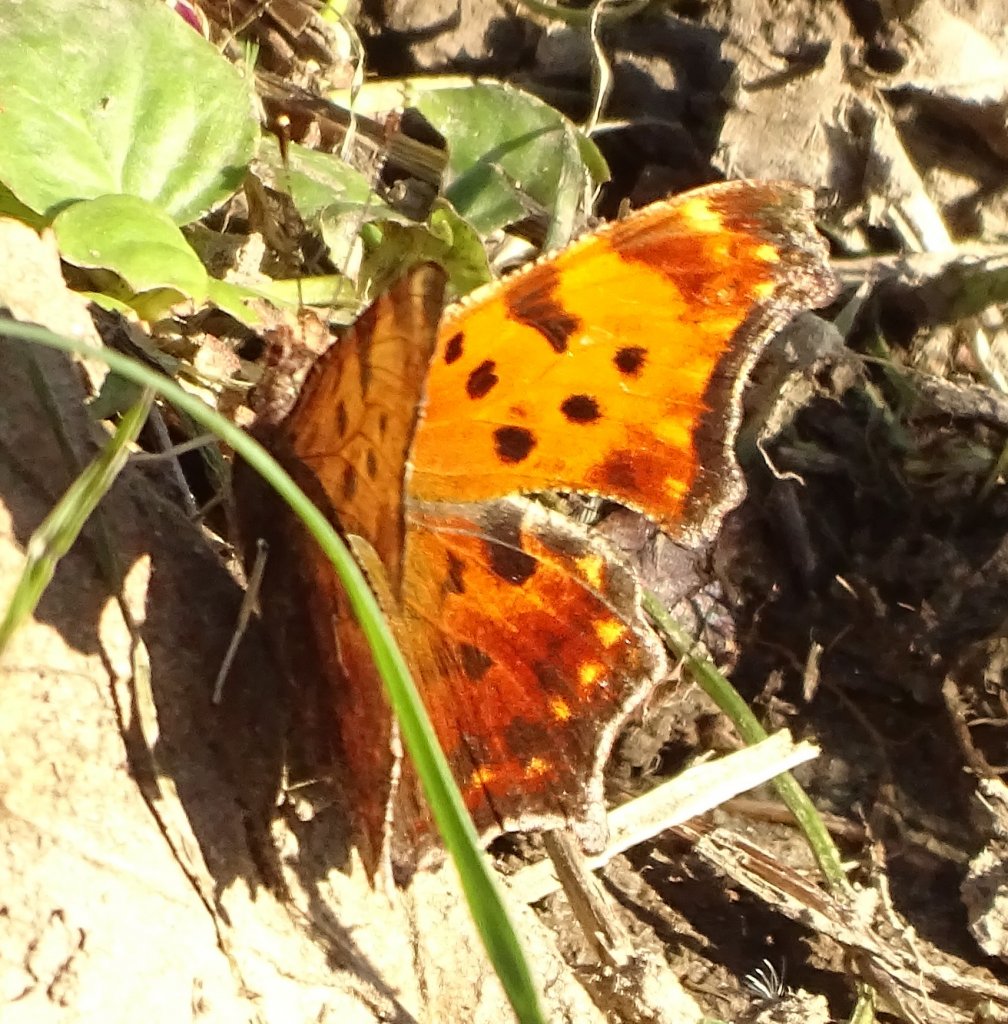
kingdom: Animalia
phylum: Arthropoda
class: Insecta
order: Lepidoptera
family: Nymphalidae
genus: Polygonia
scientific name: Polygonia comma
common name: Eastern Comma
